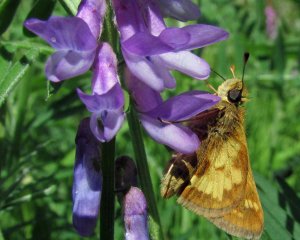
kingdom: Animalia
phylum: Arthropoda
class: Insecta
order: Lepidoptera
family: Hesperiidae
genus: Polites
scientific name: Polites coras
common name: Peck's Skipper
